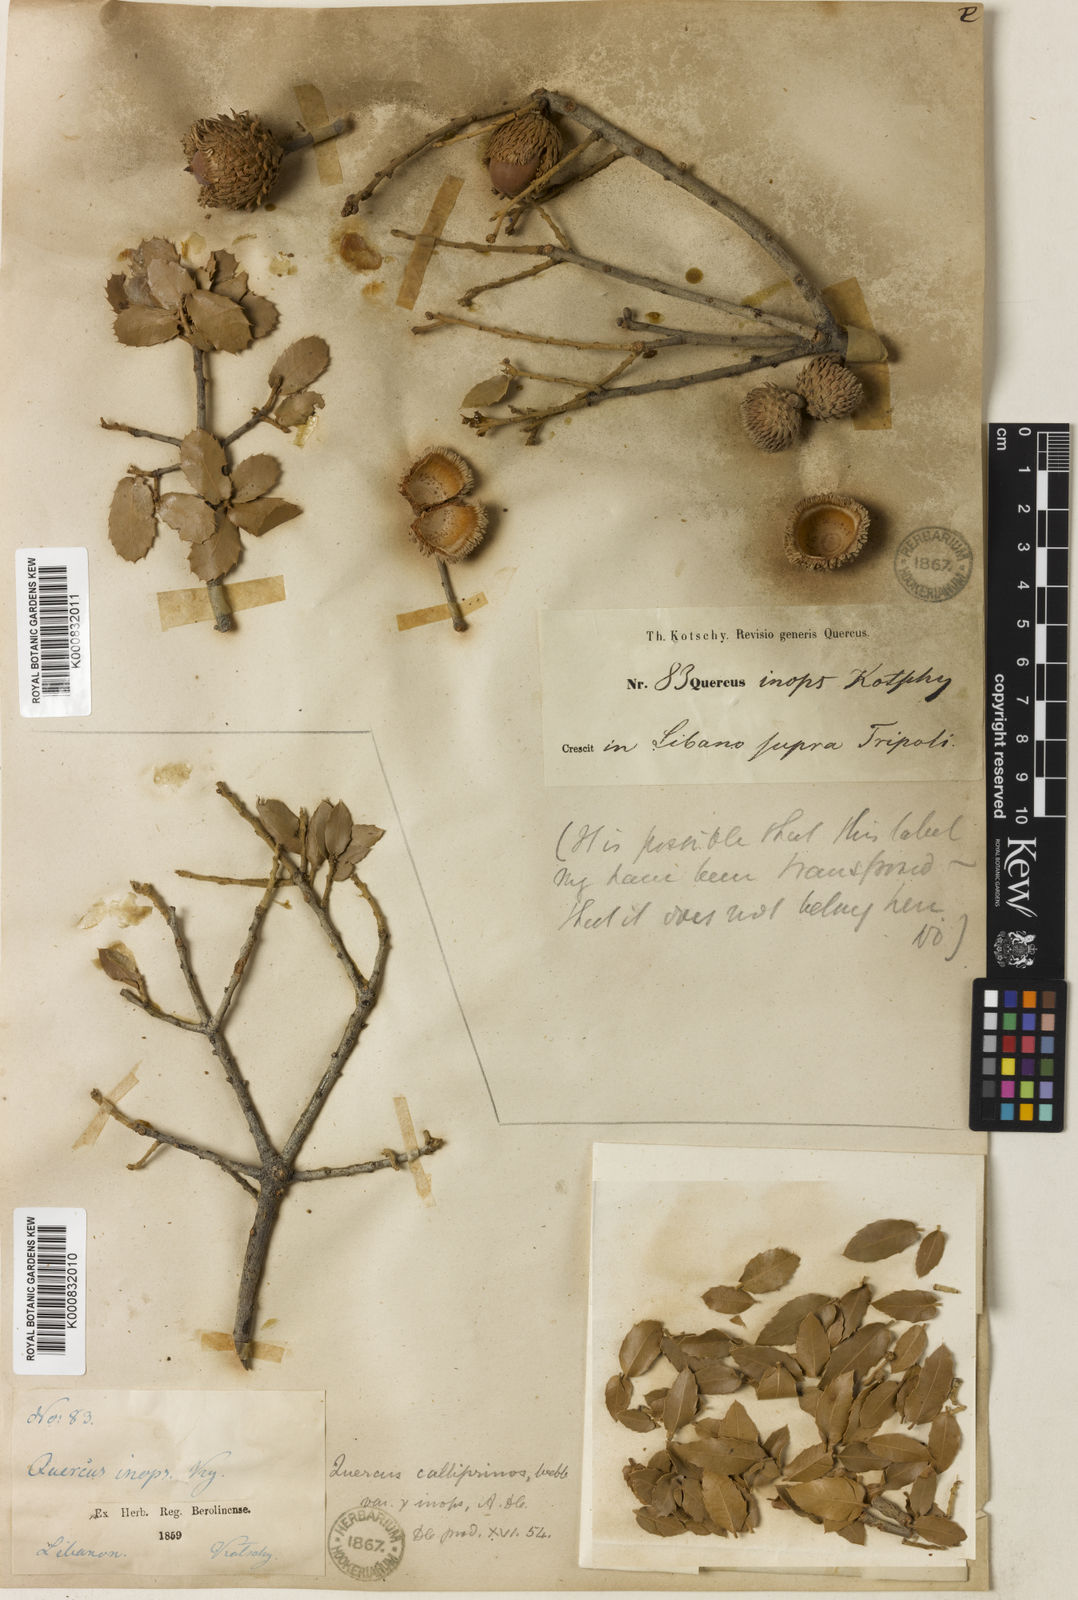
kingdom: Plantae
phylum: Tracheophyta
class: Magnoliopsida
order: Fagales
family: Fagaceae
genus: Quercus
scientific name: Quercus coccifera
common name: Kermes oak
